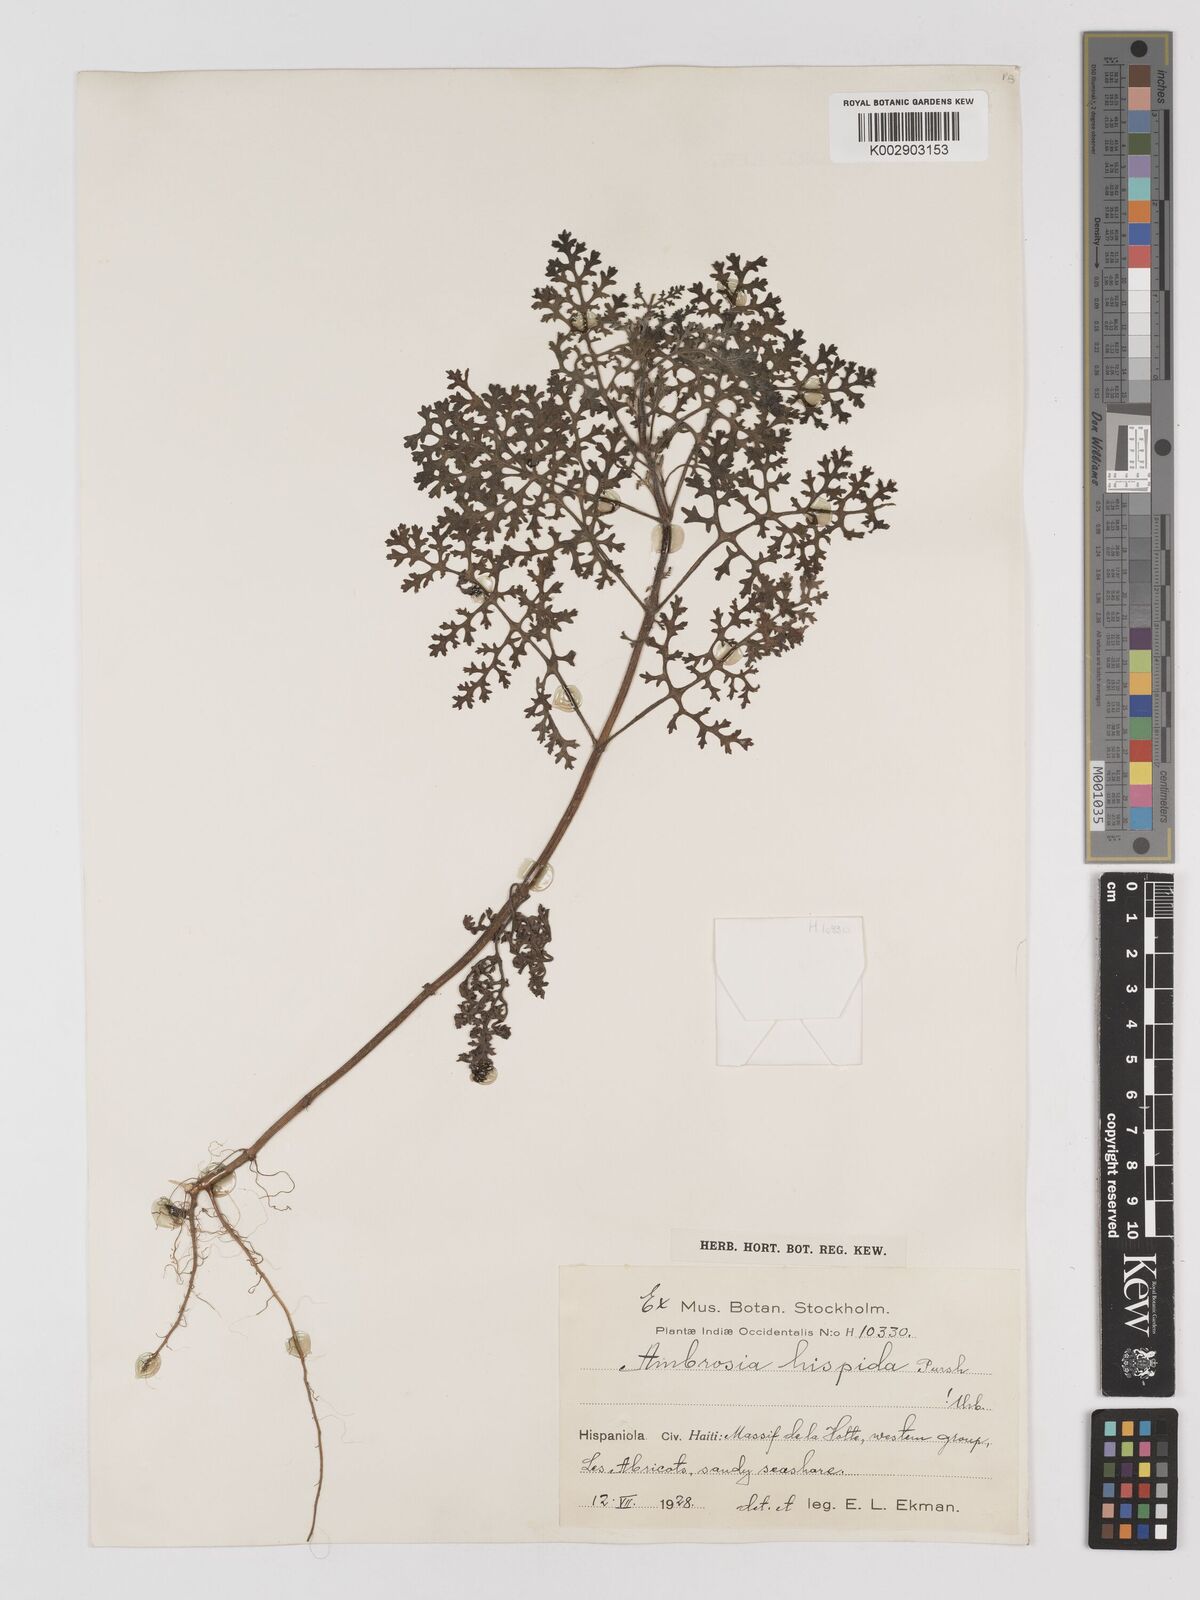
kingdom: Plantae
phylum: Tracheophyta
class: Magnoliopsida
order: Asterales
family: Asteraceae
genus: Ambrosia
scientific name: Ambrosia hispida
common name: Coastal ragweed
